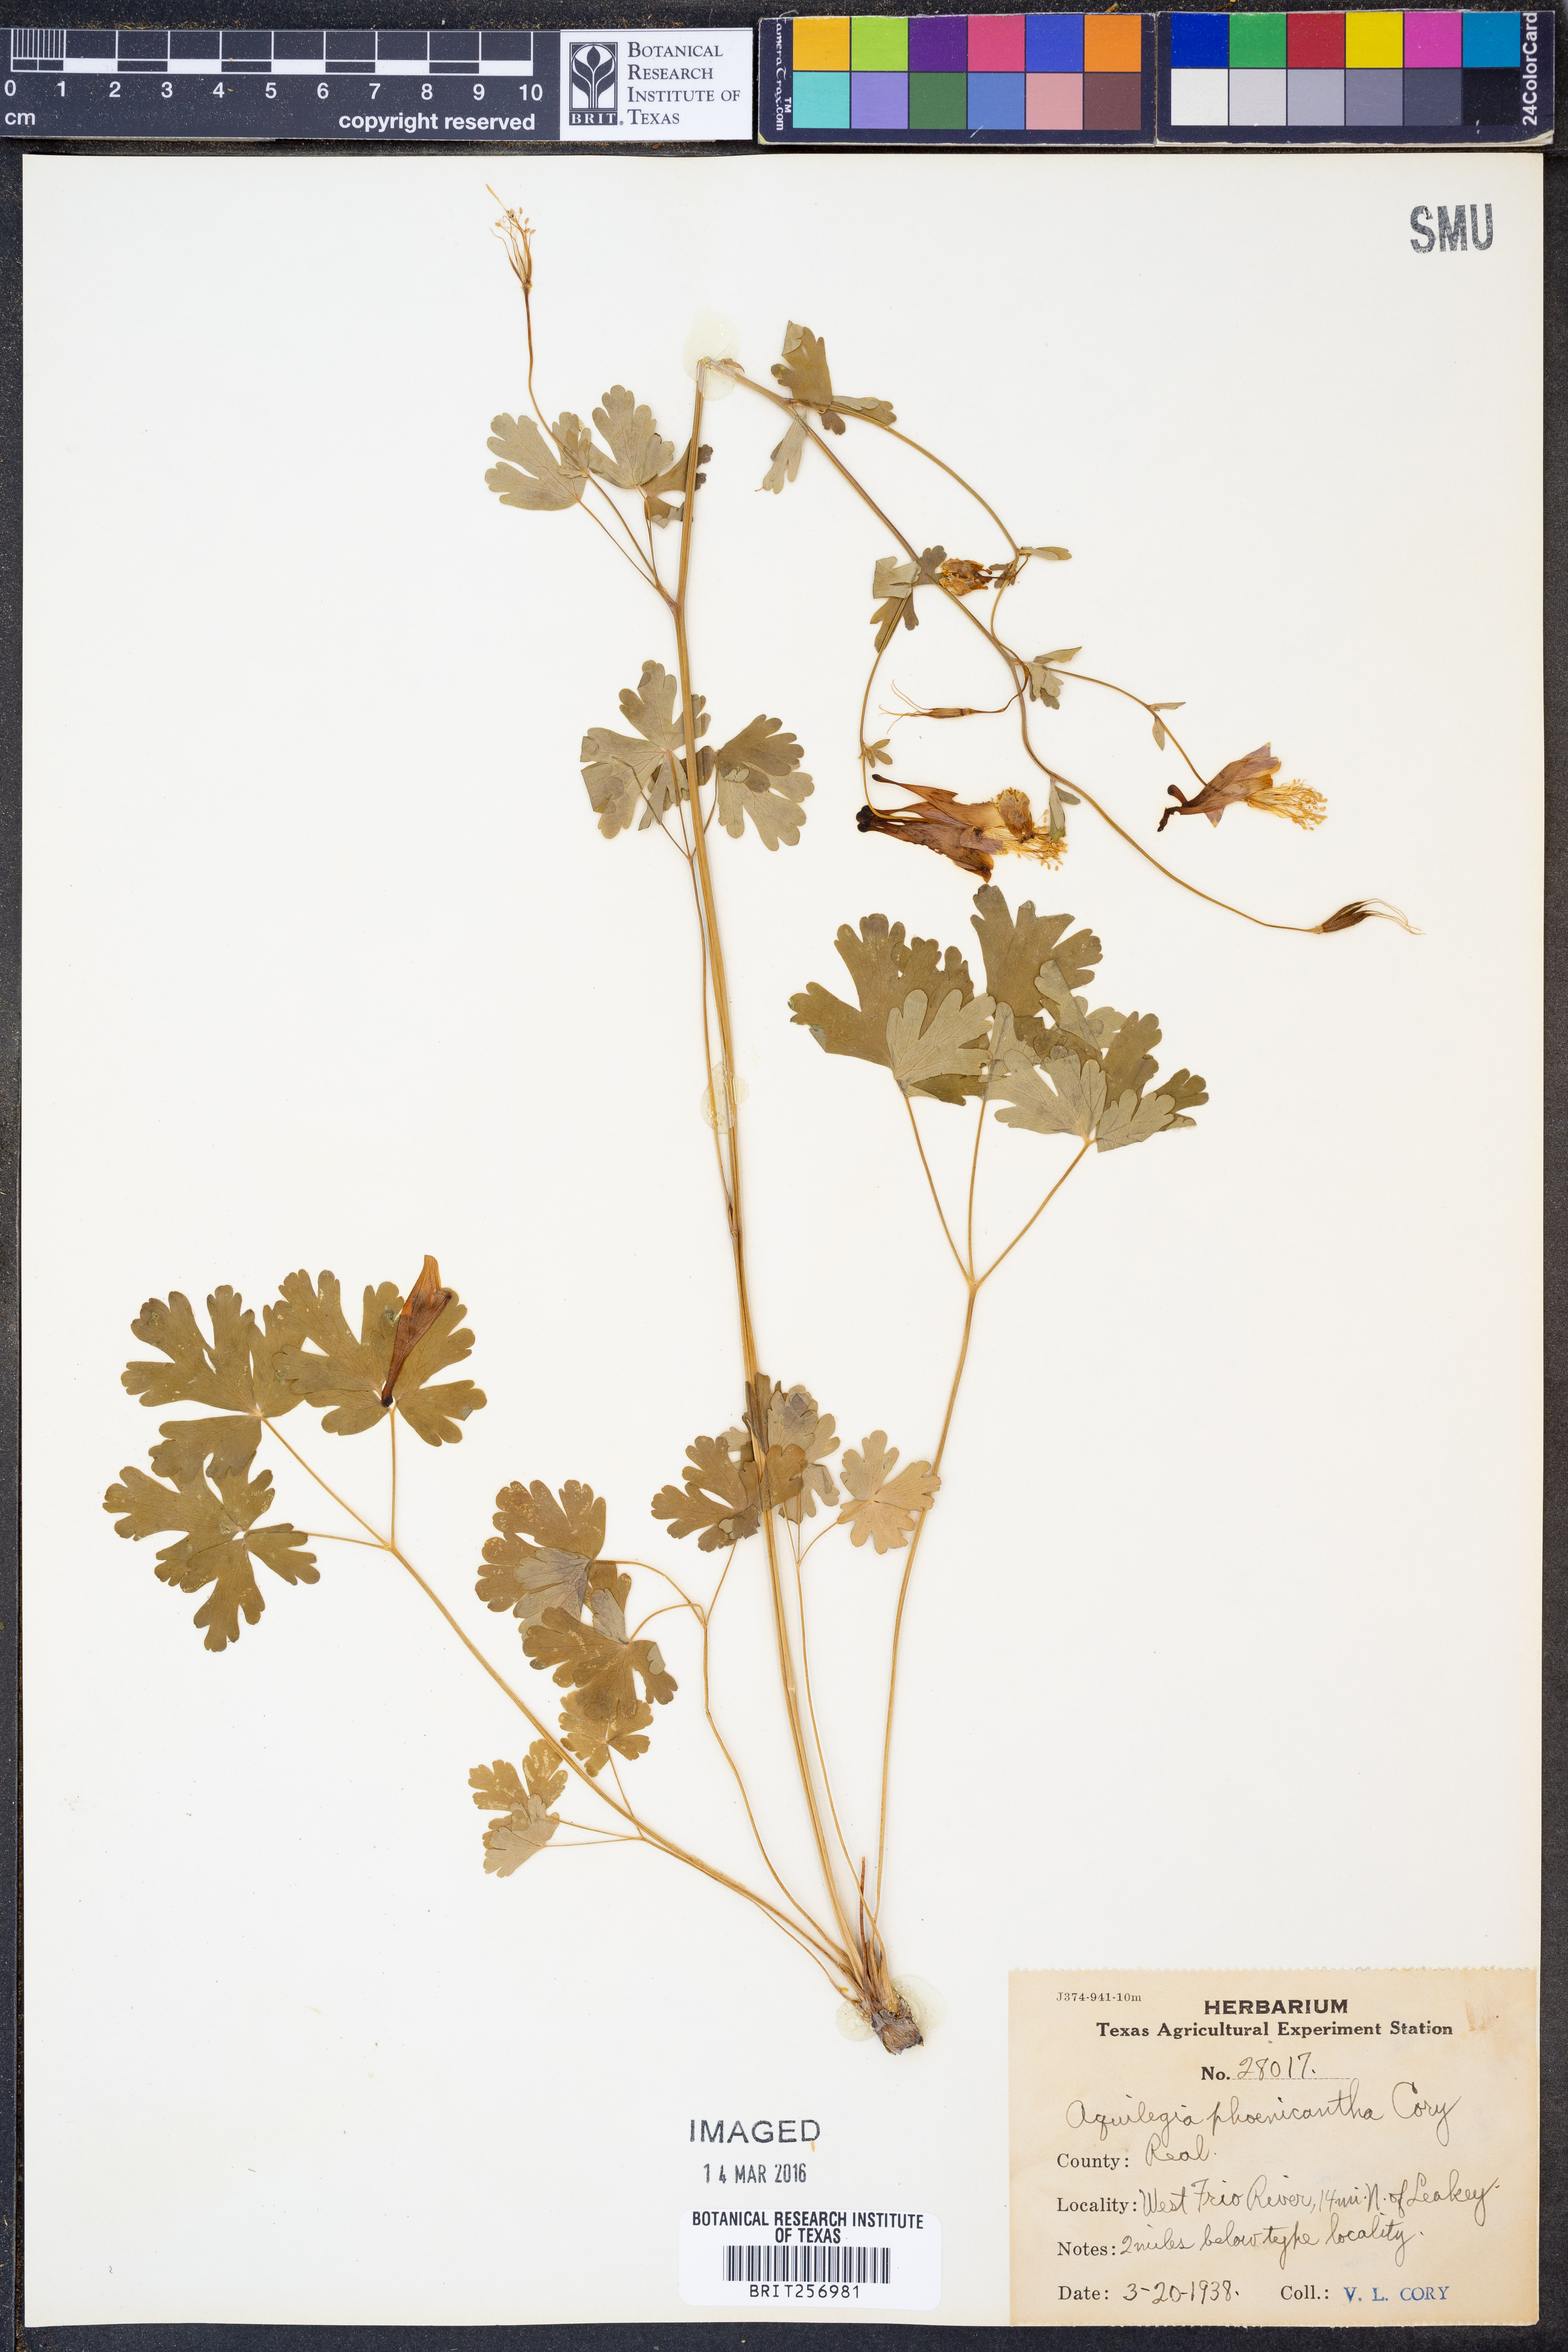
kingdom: Plantae
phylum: Tracheophyta
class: Magnoliopsida
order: Ranunculales
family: Ranunculaceae
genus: Aquilegia
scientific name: Aquilegia canadensis
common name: American columbine
